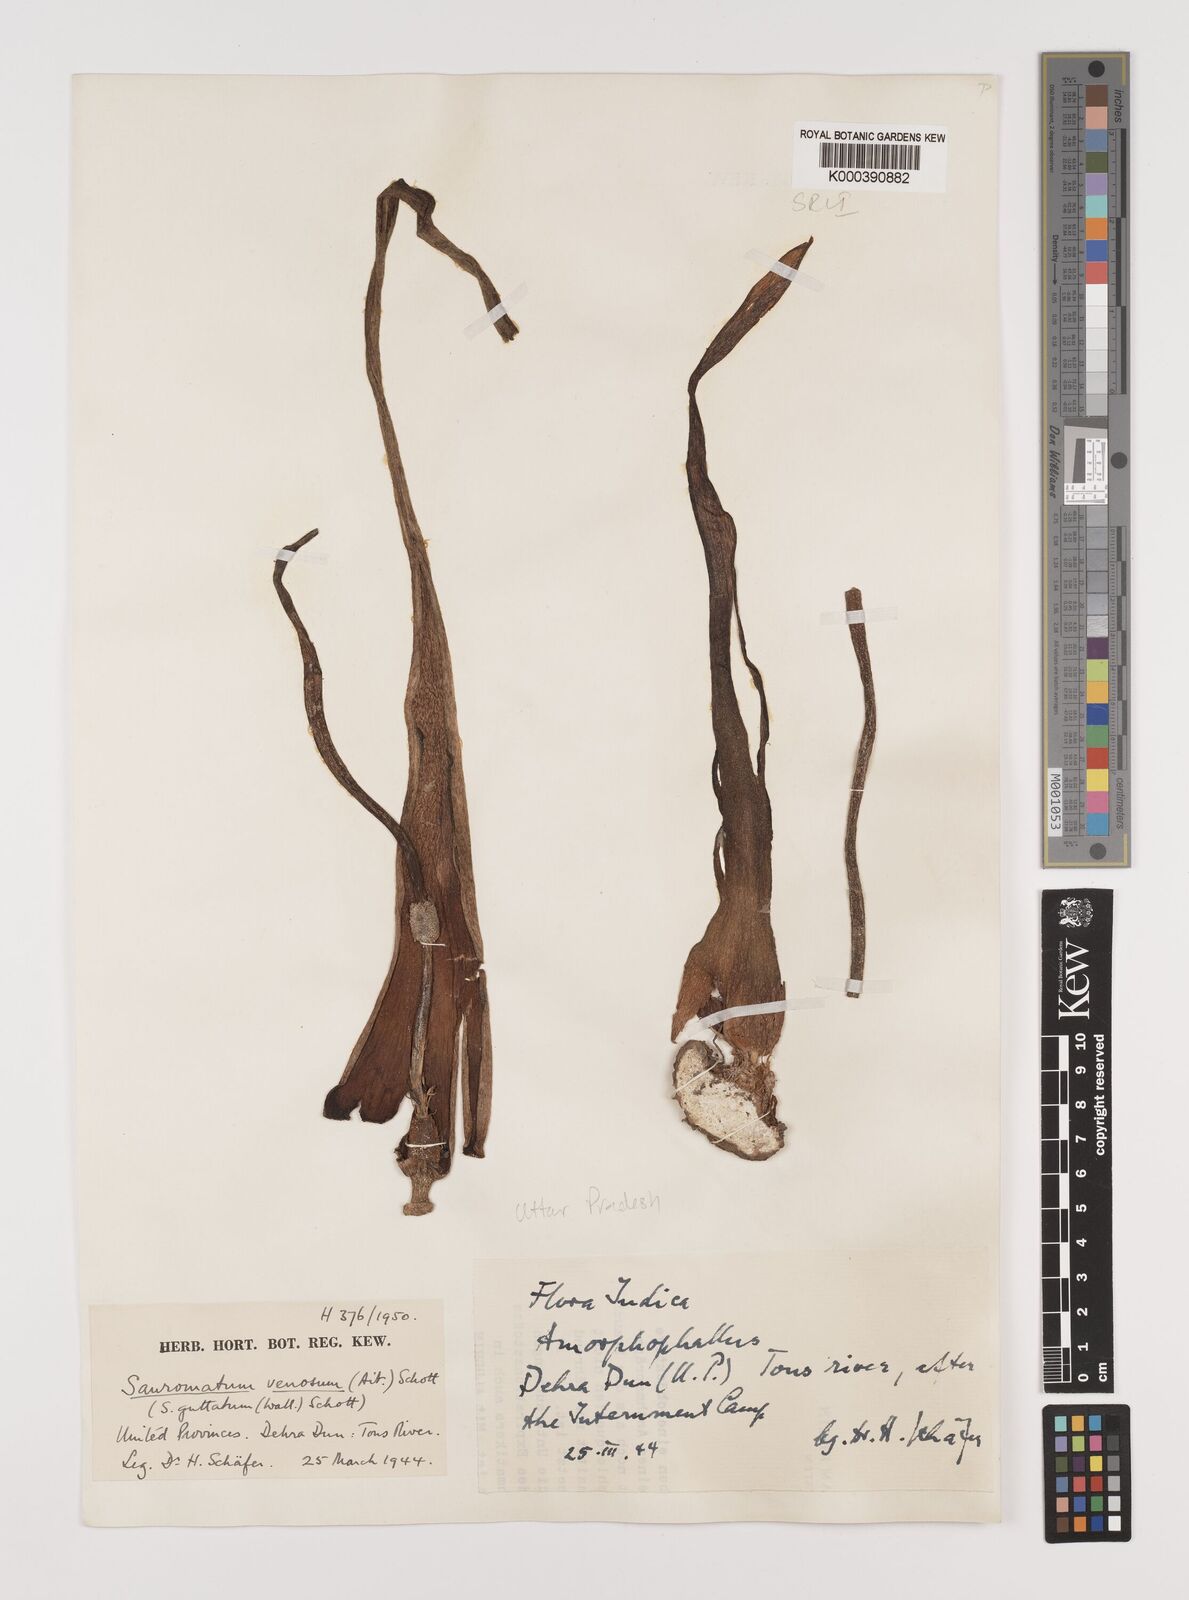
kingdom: Plantae
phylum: Tracheophyta
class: Liliopsida
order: Alismatales
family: Araceae
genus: Sauromatum
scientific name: Sauromatum venosum
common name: Voodoo lily
